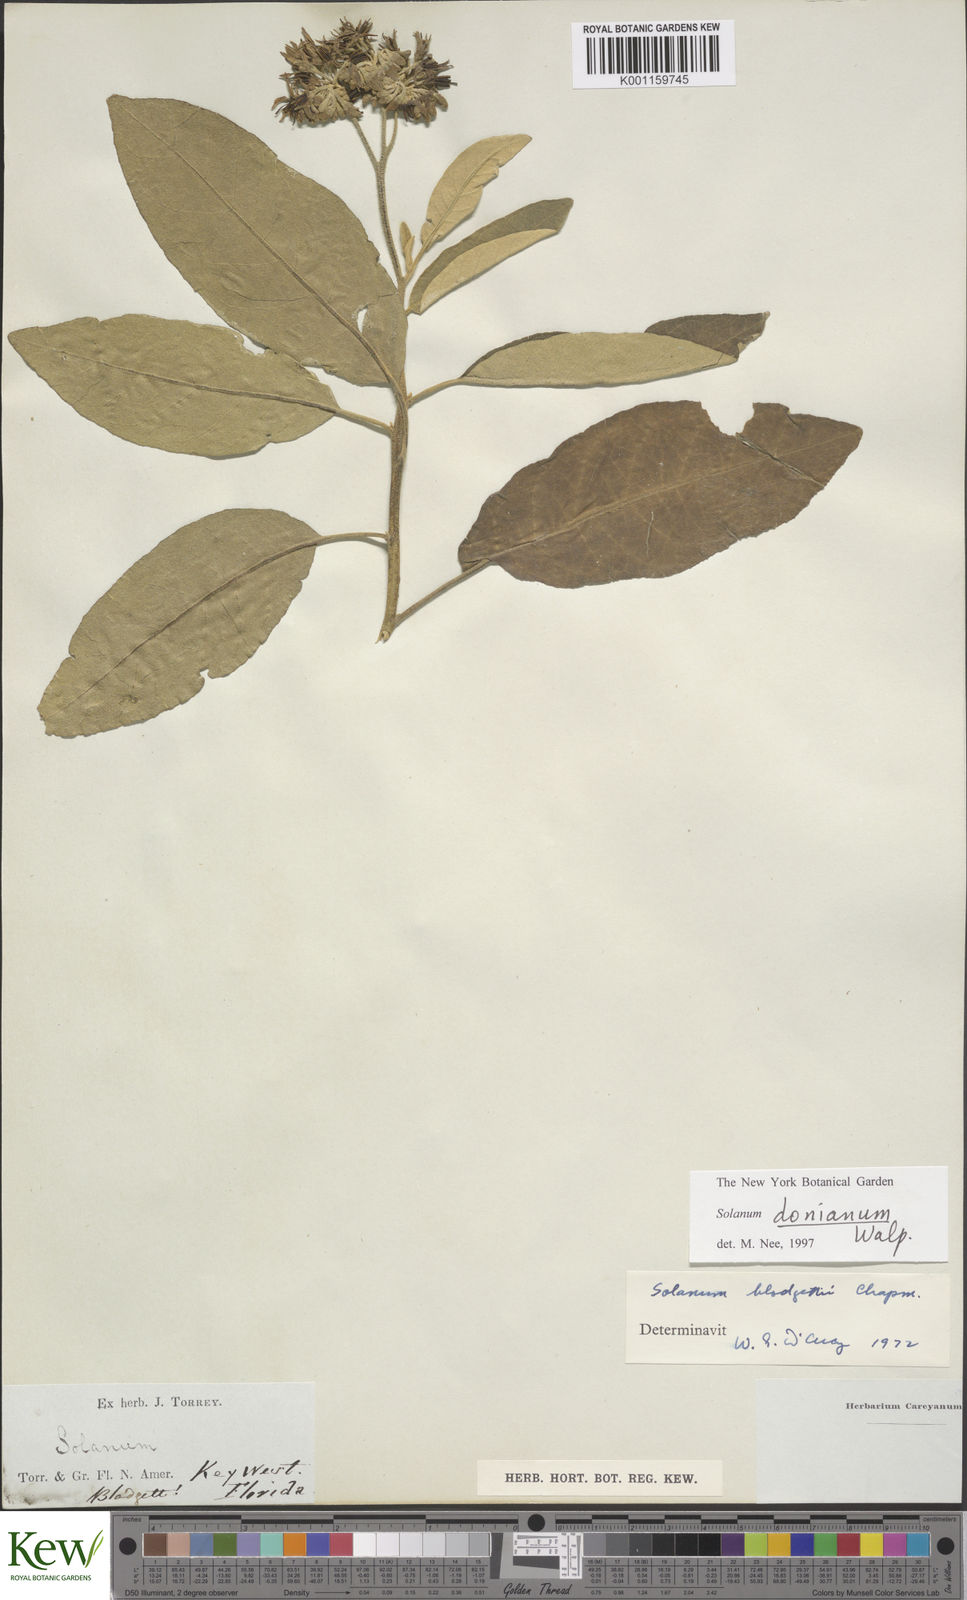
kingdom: Plantae
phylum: Tracheophyta
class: Magnoliopsida
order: Solanales
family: Solanaceae
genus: Solanum
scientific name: Solanum donianum
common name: Mullein nightshade
